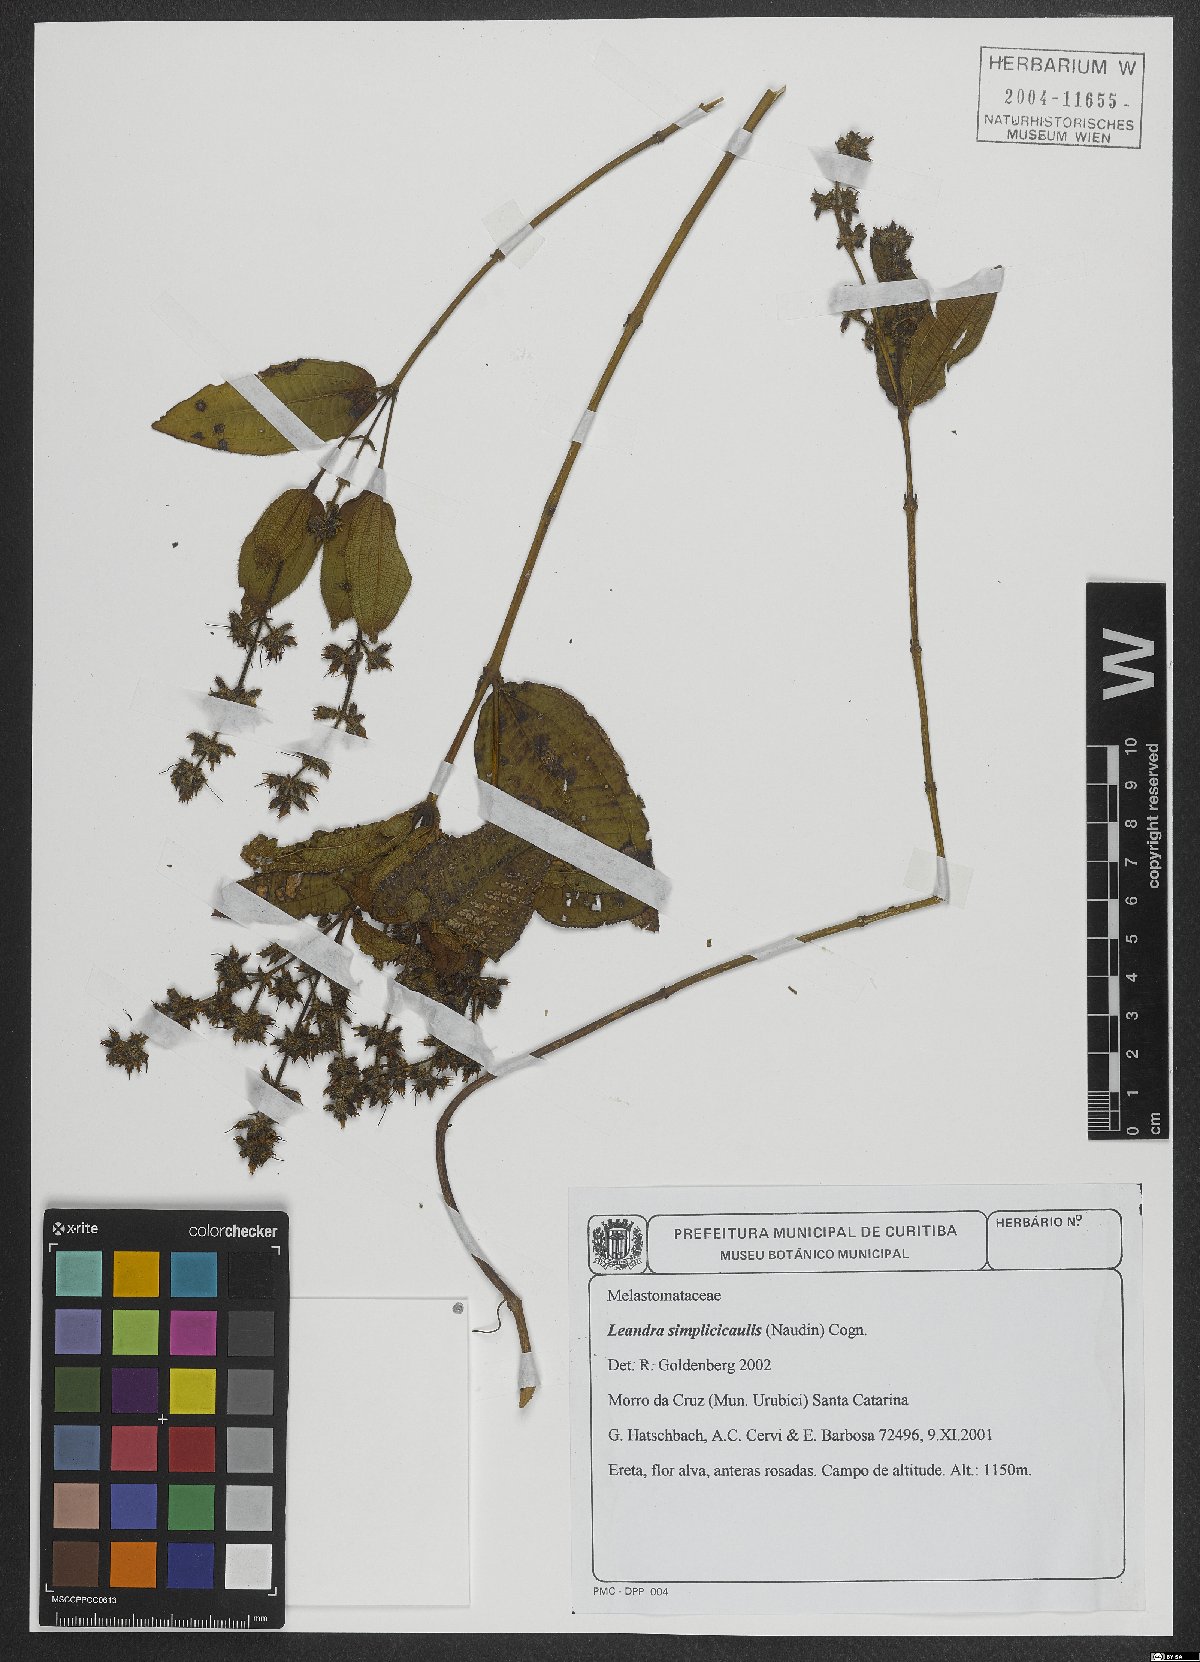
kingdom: Plantae
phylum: Tracheophyta
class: Magnoliopsida
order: Myrtales
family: Melastomataceae
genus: Miconia
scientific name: Miconia simplicicaulis
